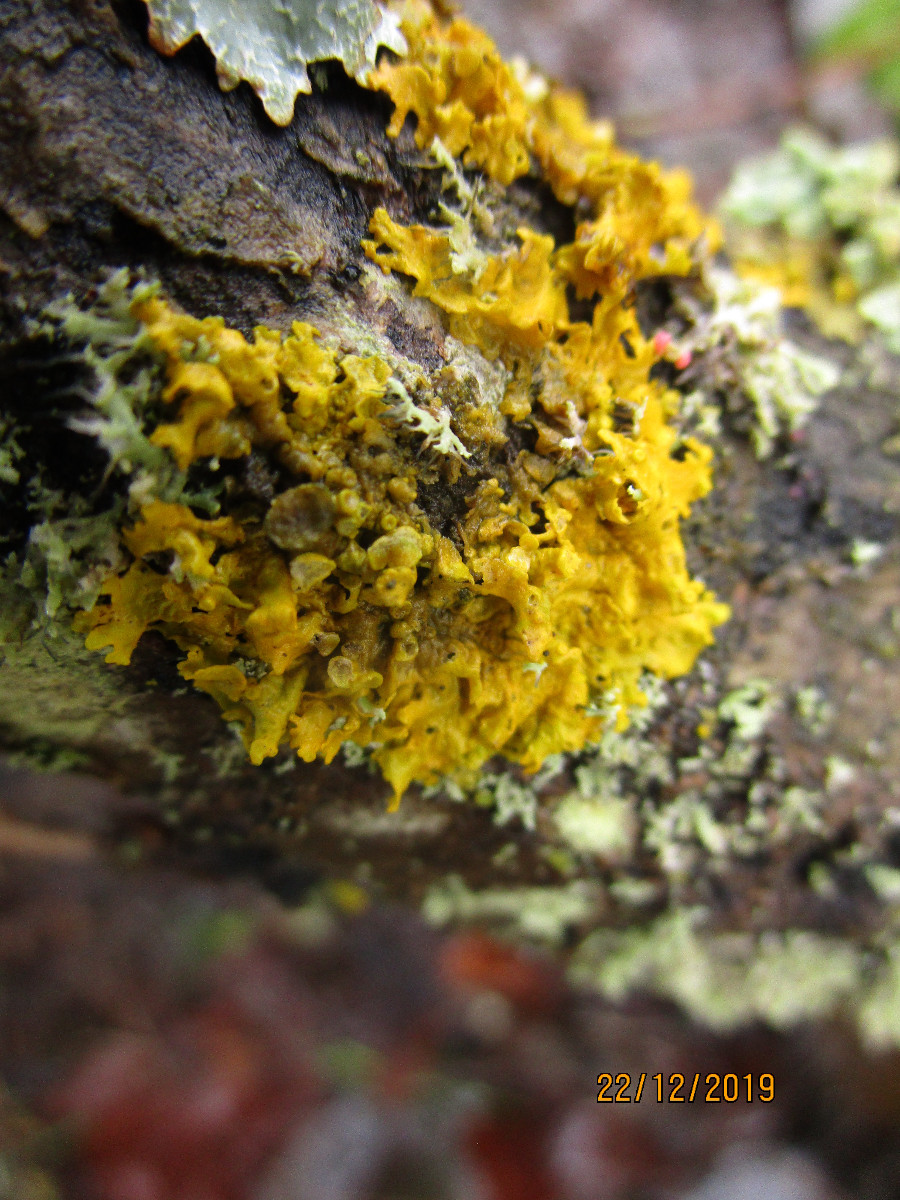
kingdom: Fungi
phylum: Ascomycota
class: Lecanoromycetes
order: Teloschistales
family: Teloschistaceae
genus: Xanthoria
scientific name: Xanthoria parietina
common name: almindelig væggelav
